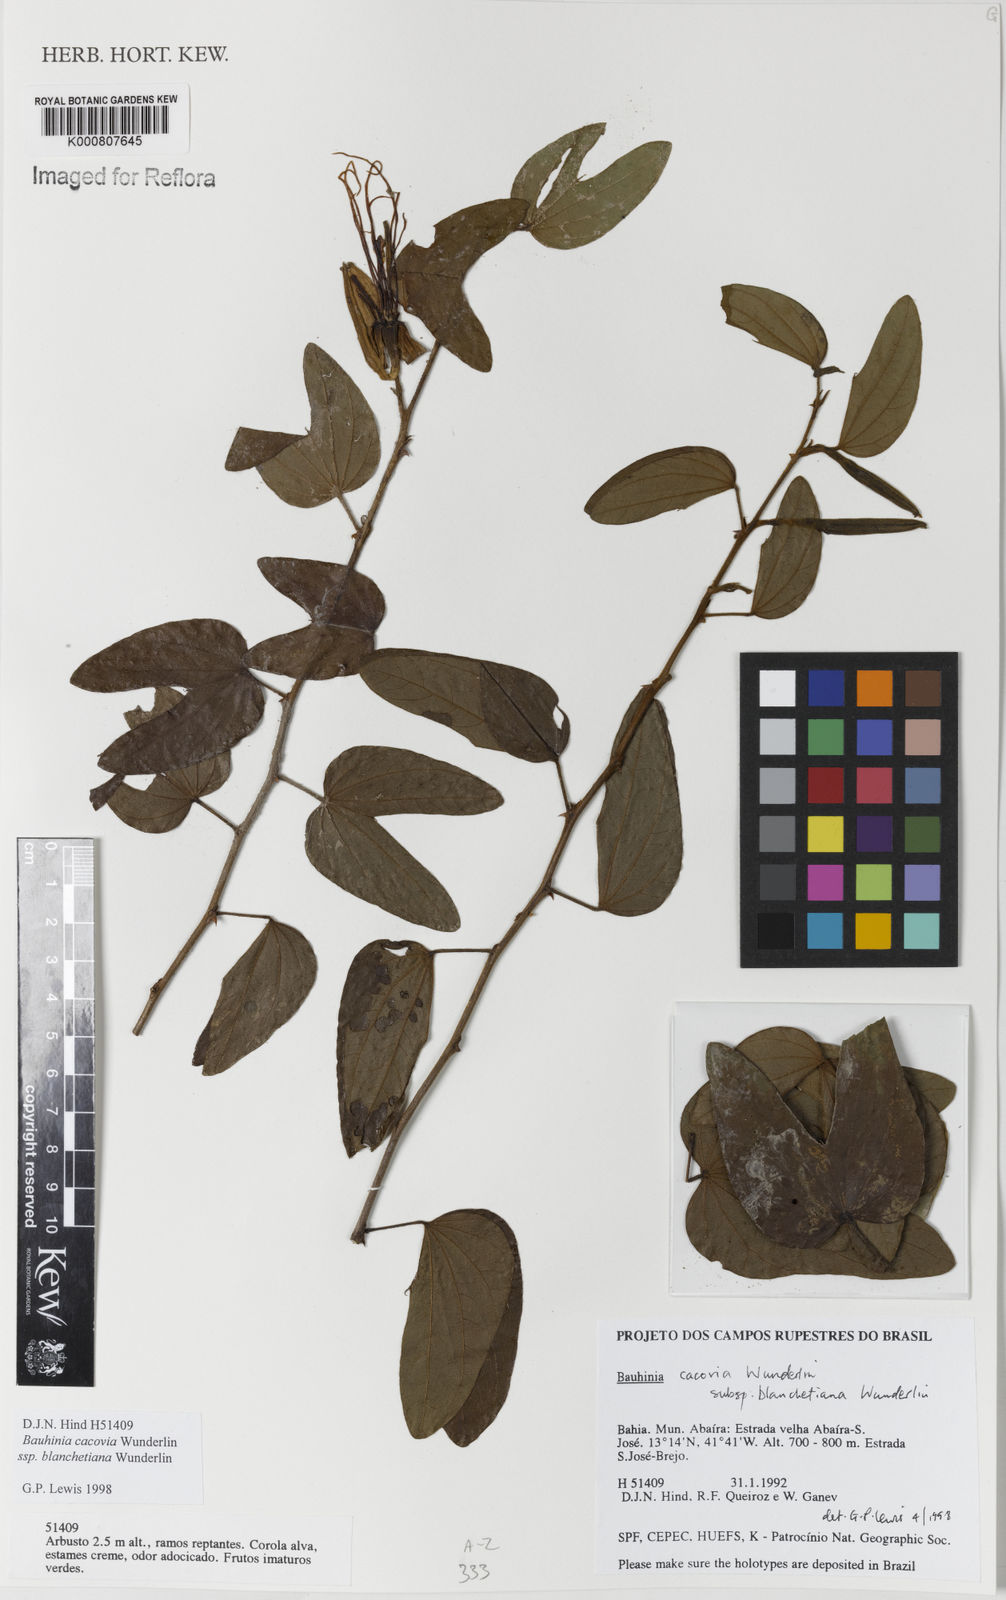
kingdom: Plantae
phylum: Tracheophyta
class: Magnoliopsida
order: Fabales
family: Fabaceae
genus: Bauhinia
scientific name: Bauhinia
